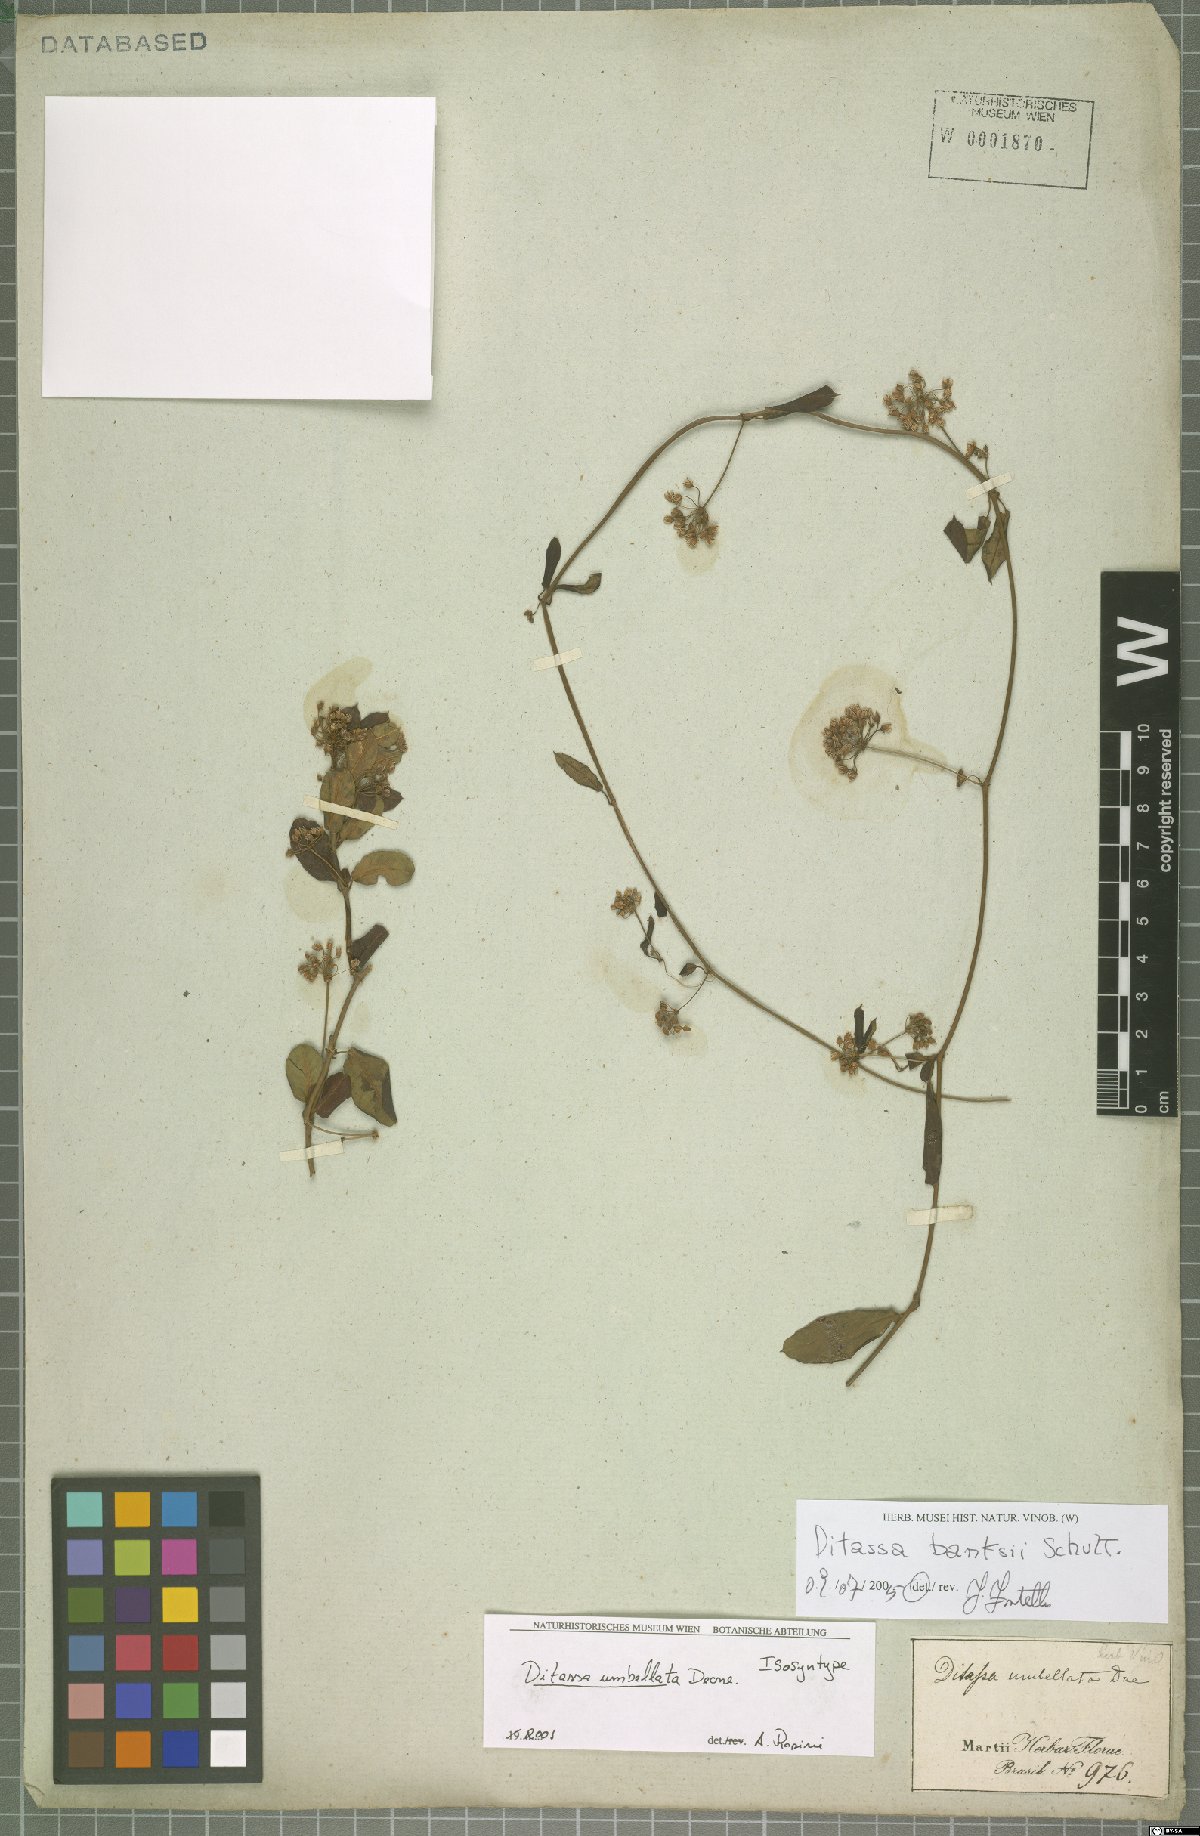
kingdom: Plantae
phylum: Tracheophyta
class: Magnoliopsida
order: Gentianales
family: Apocynaceae
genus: Ditassa
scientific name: Ditassa banksii
